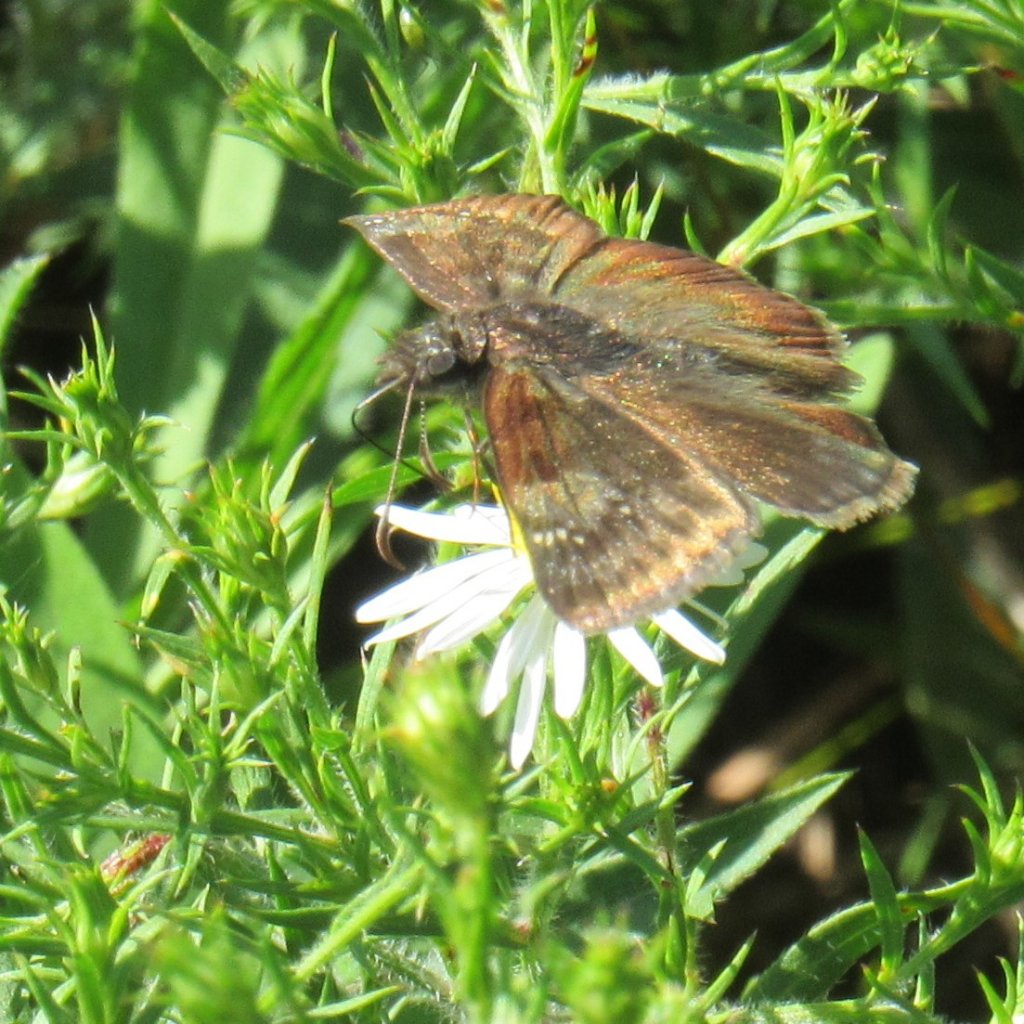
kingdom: Animalia
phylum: Arthropoda
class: Insecta
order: Lepidoptera
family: Hesperiidae
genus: Gesta
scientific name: Gesta
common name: Wild Indigo Duskywing
